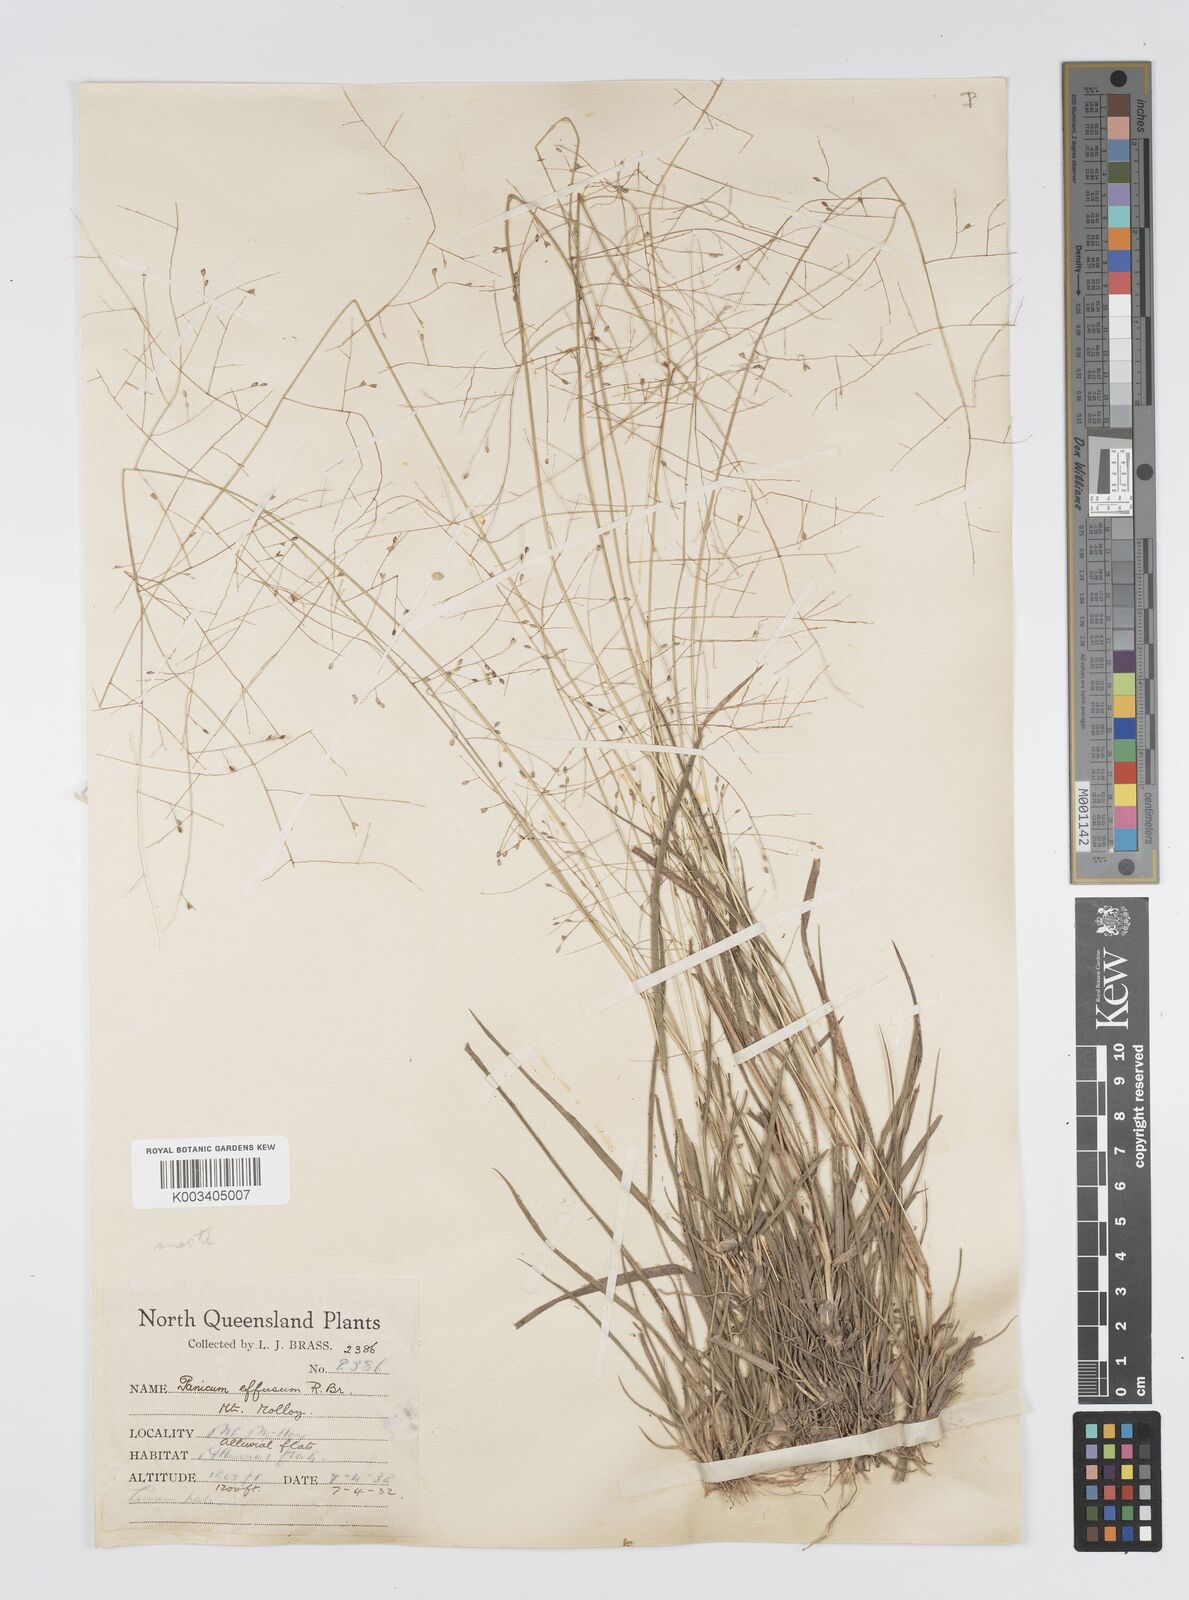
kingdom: Plantae
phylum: Tracheophyta
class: Liliopsida
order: Poales
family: Poaceae
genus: Panicum
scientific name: Panicum effusum
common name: Hairy panic grass
